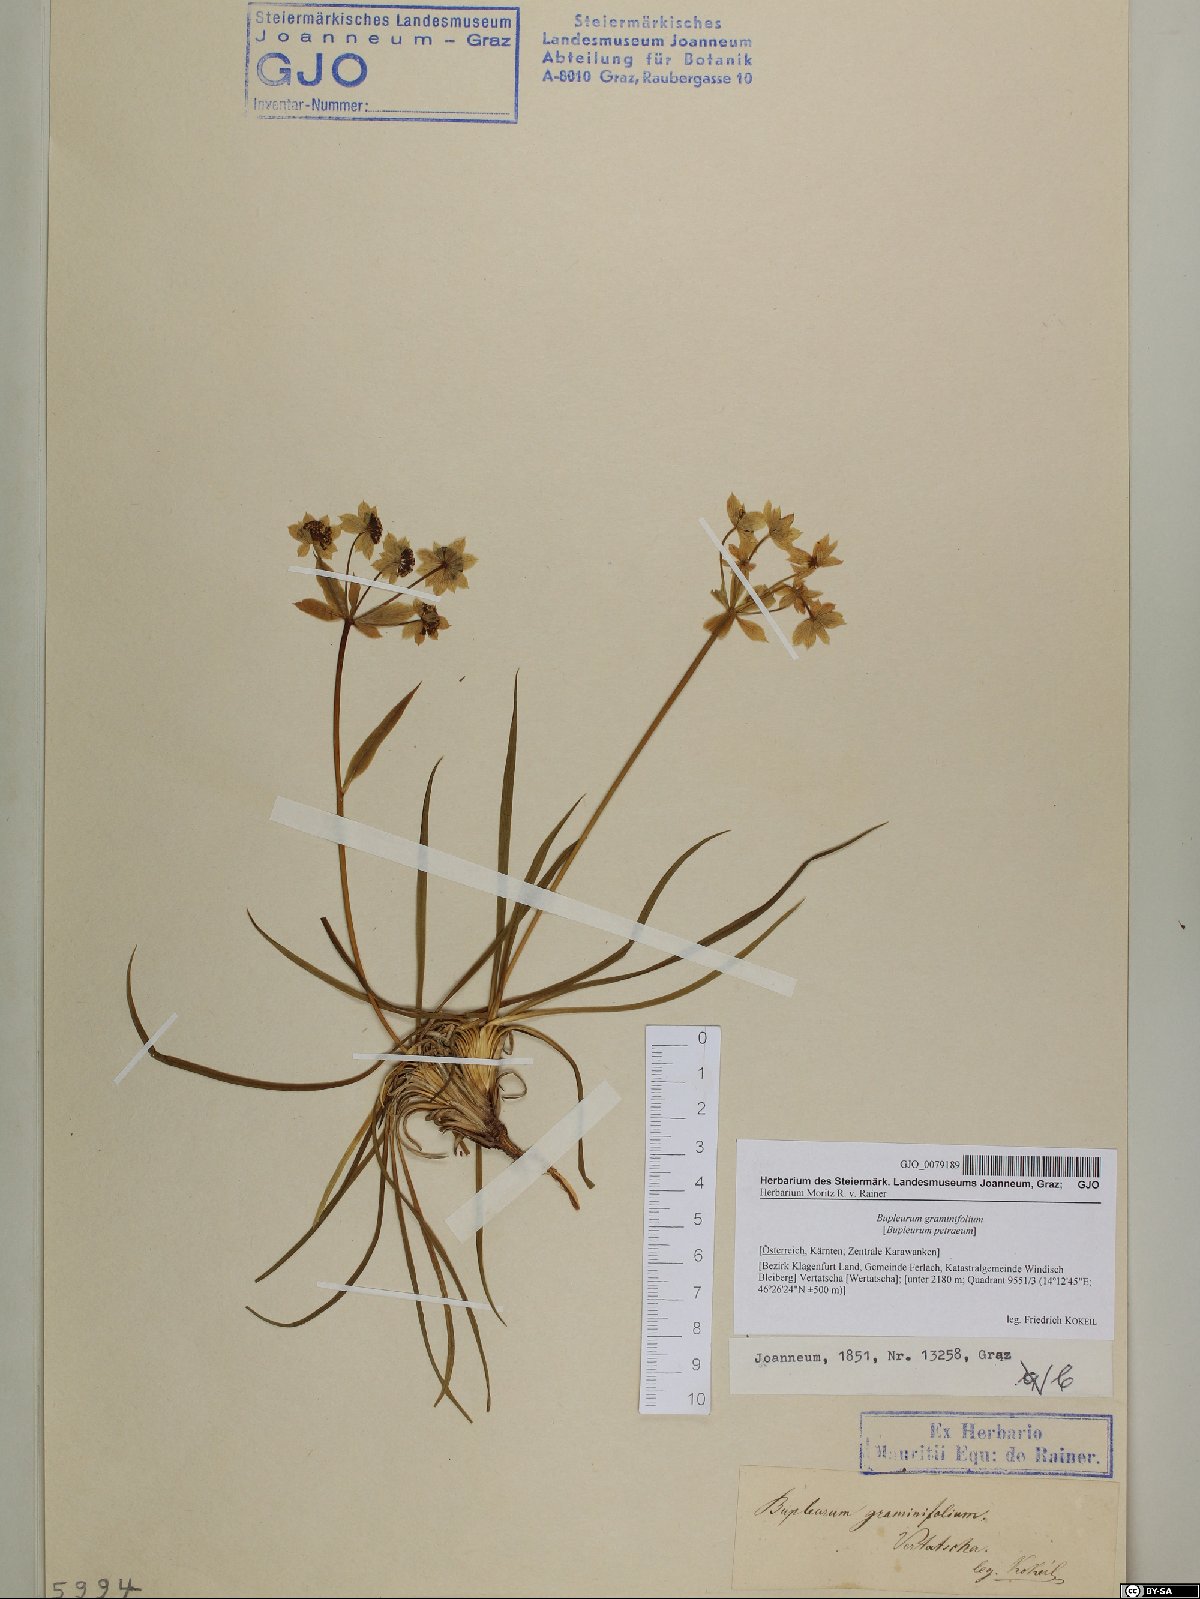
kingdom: Plantae
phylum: Tracheophyta
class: Magnoliopsida
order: Apiales
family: Apiaceae
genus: Bupleurum
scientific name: Bupleurum petraeum
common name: Rock hare's-ear
